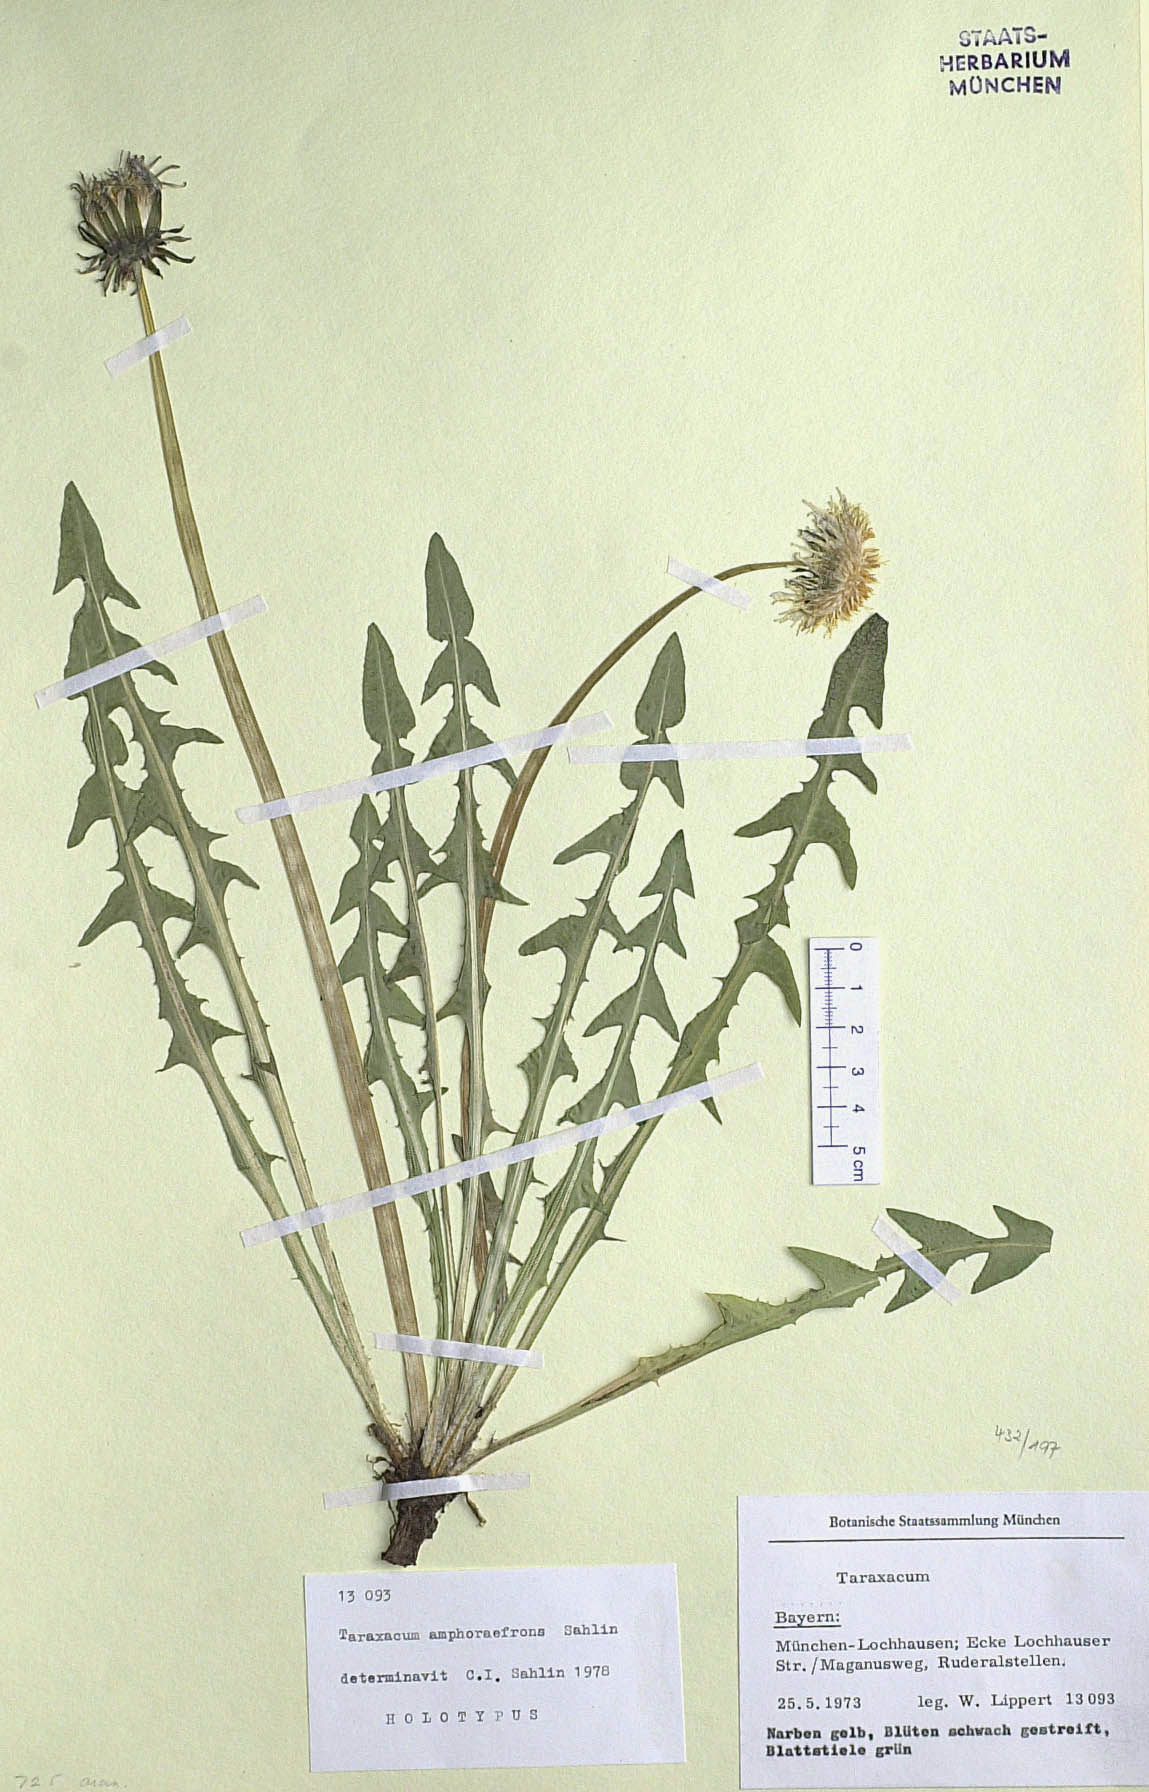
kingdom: Plantae
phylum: Tracheophyta
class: Magnoliopsida
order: Asterales
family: Asteraceae
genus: Taraxacum
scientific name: Taraxacum amphoraefrons
